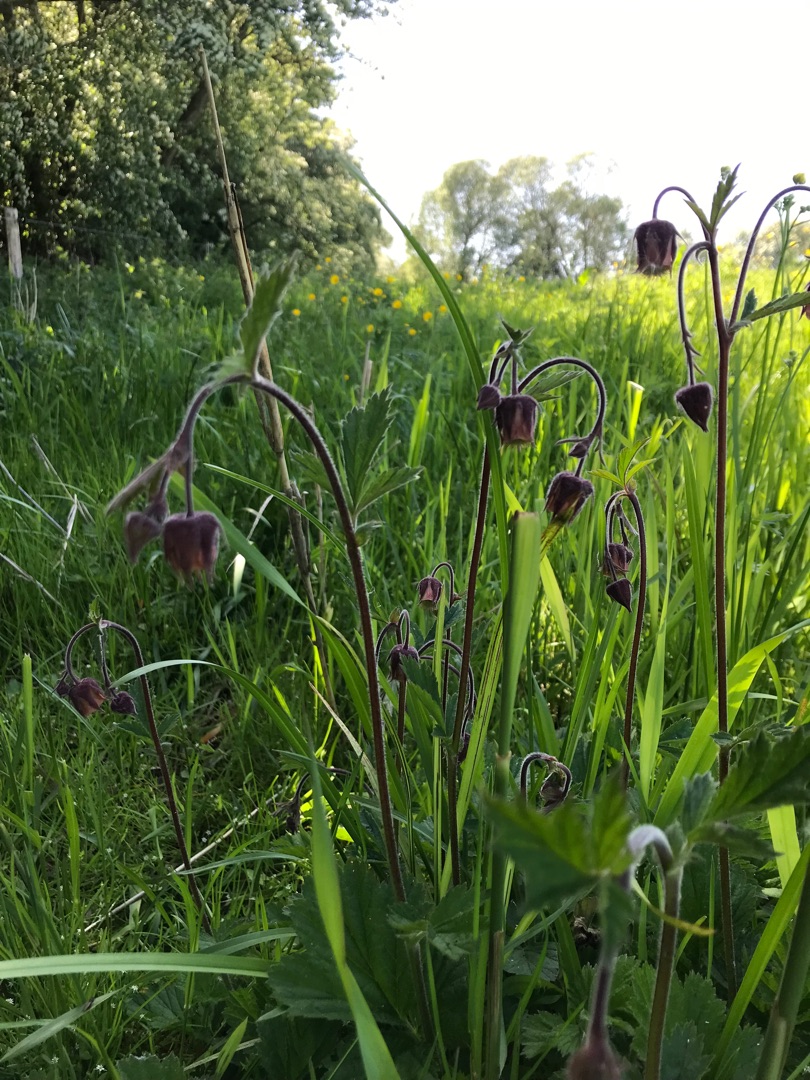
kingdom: Plantae
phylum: Tracheophyta
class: Magnoliopsida
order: Rosales
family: Rosaceae
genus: Geum
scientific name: Geum rivale
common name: Eng-nellikerod
